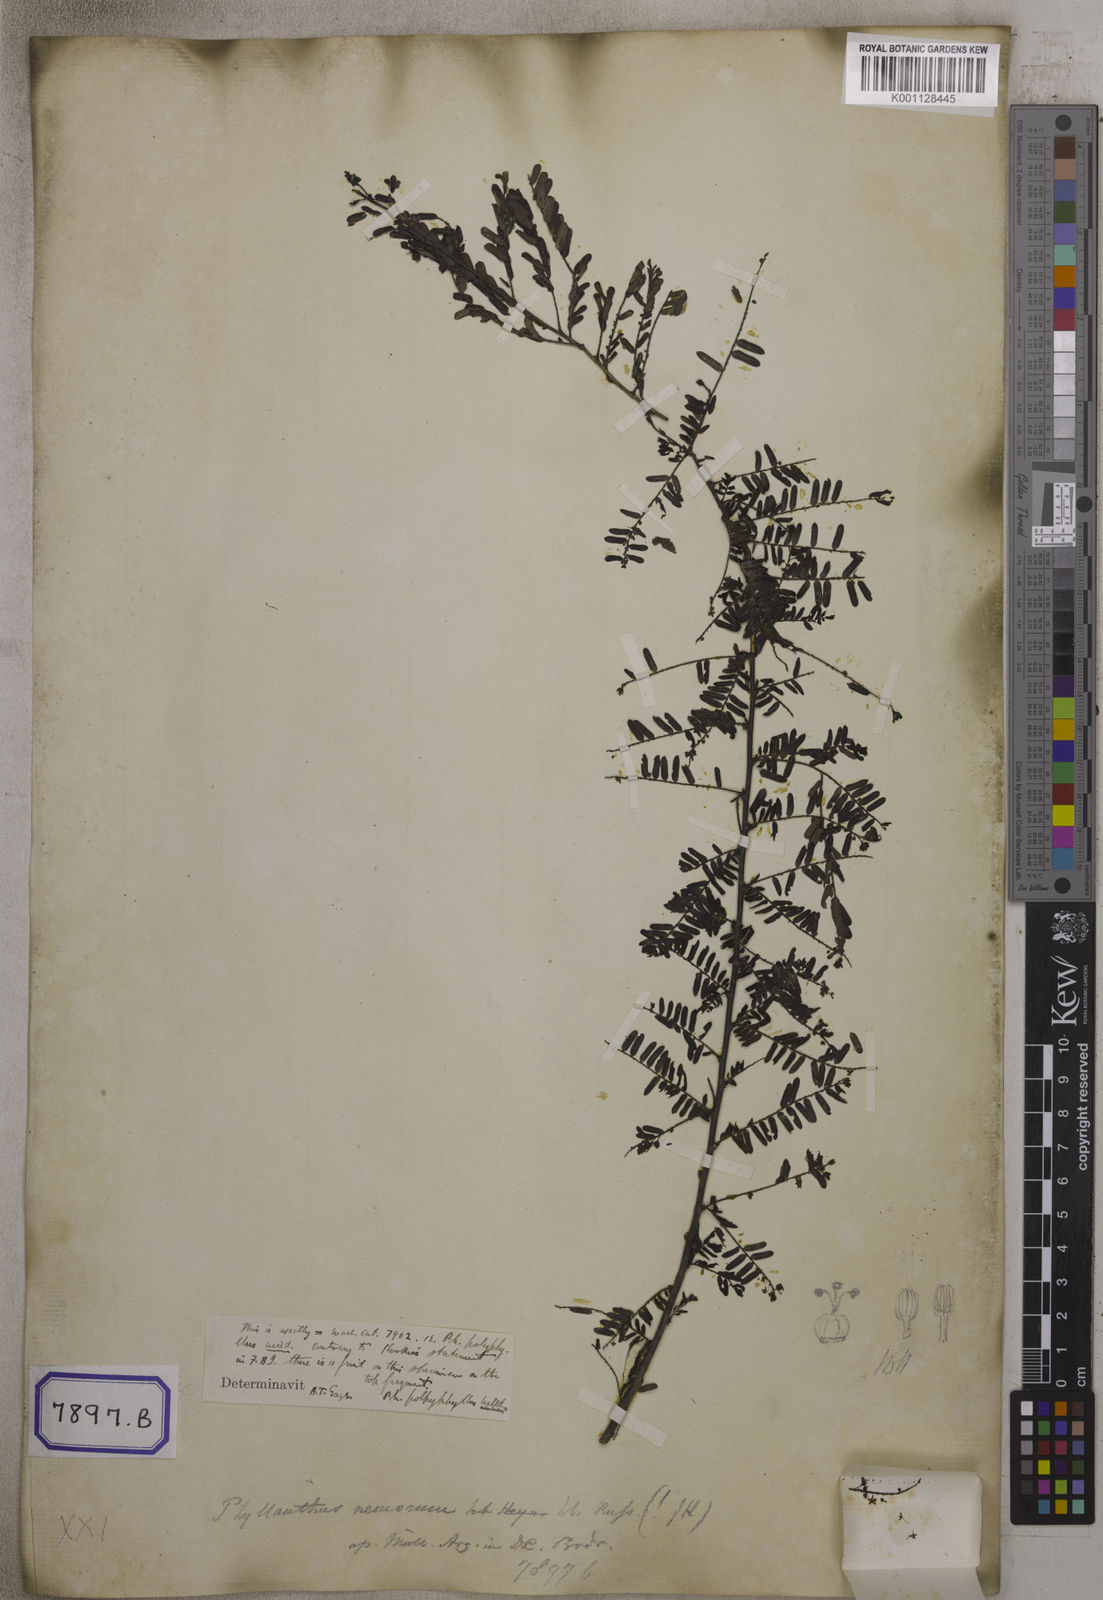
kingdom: Plantae
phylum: Tracheophyta
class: Magnoliopsida
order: Malpighiales
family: Euphorbiaceae
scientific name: Euphorbiaceae
